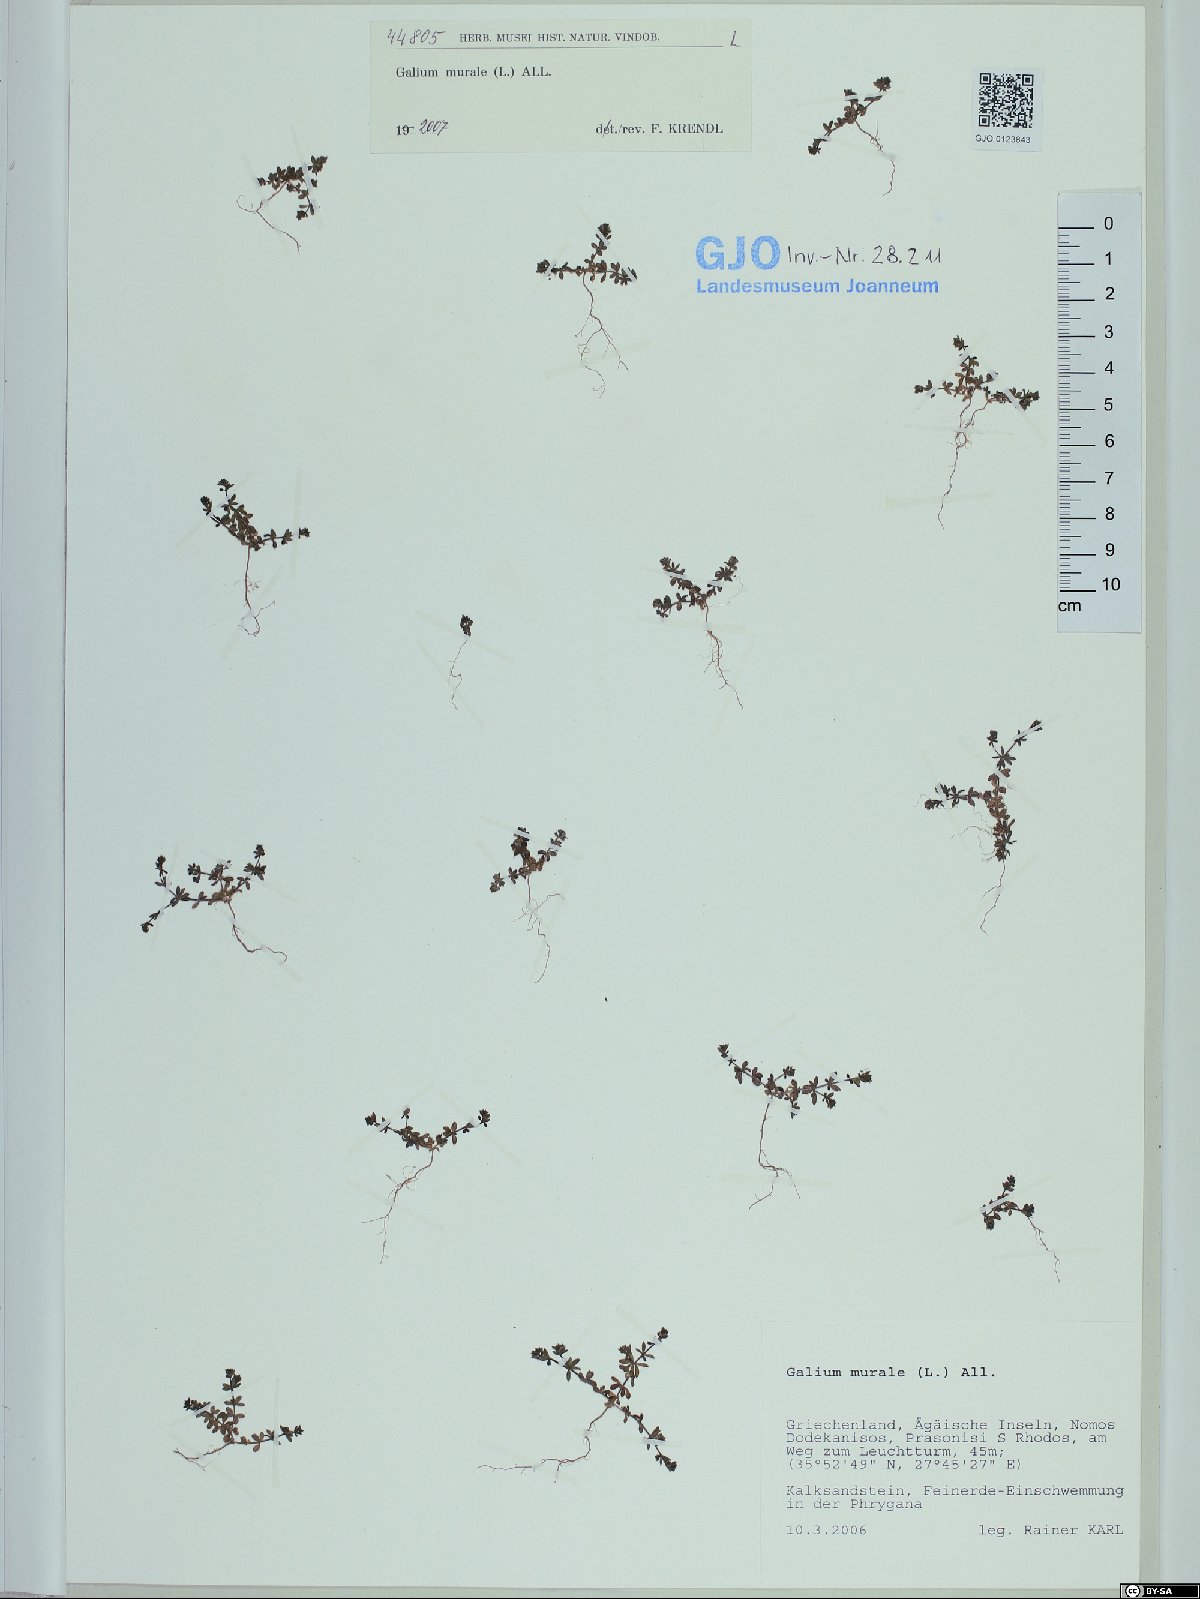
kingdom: Plantae
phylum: Tracheophyta
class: Magnoliopsida
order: Gentianales
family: Rubiaceae
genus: Galium
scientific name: Galium murale
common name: Yellow wall bedstraw
